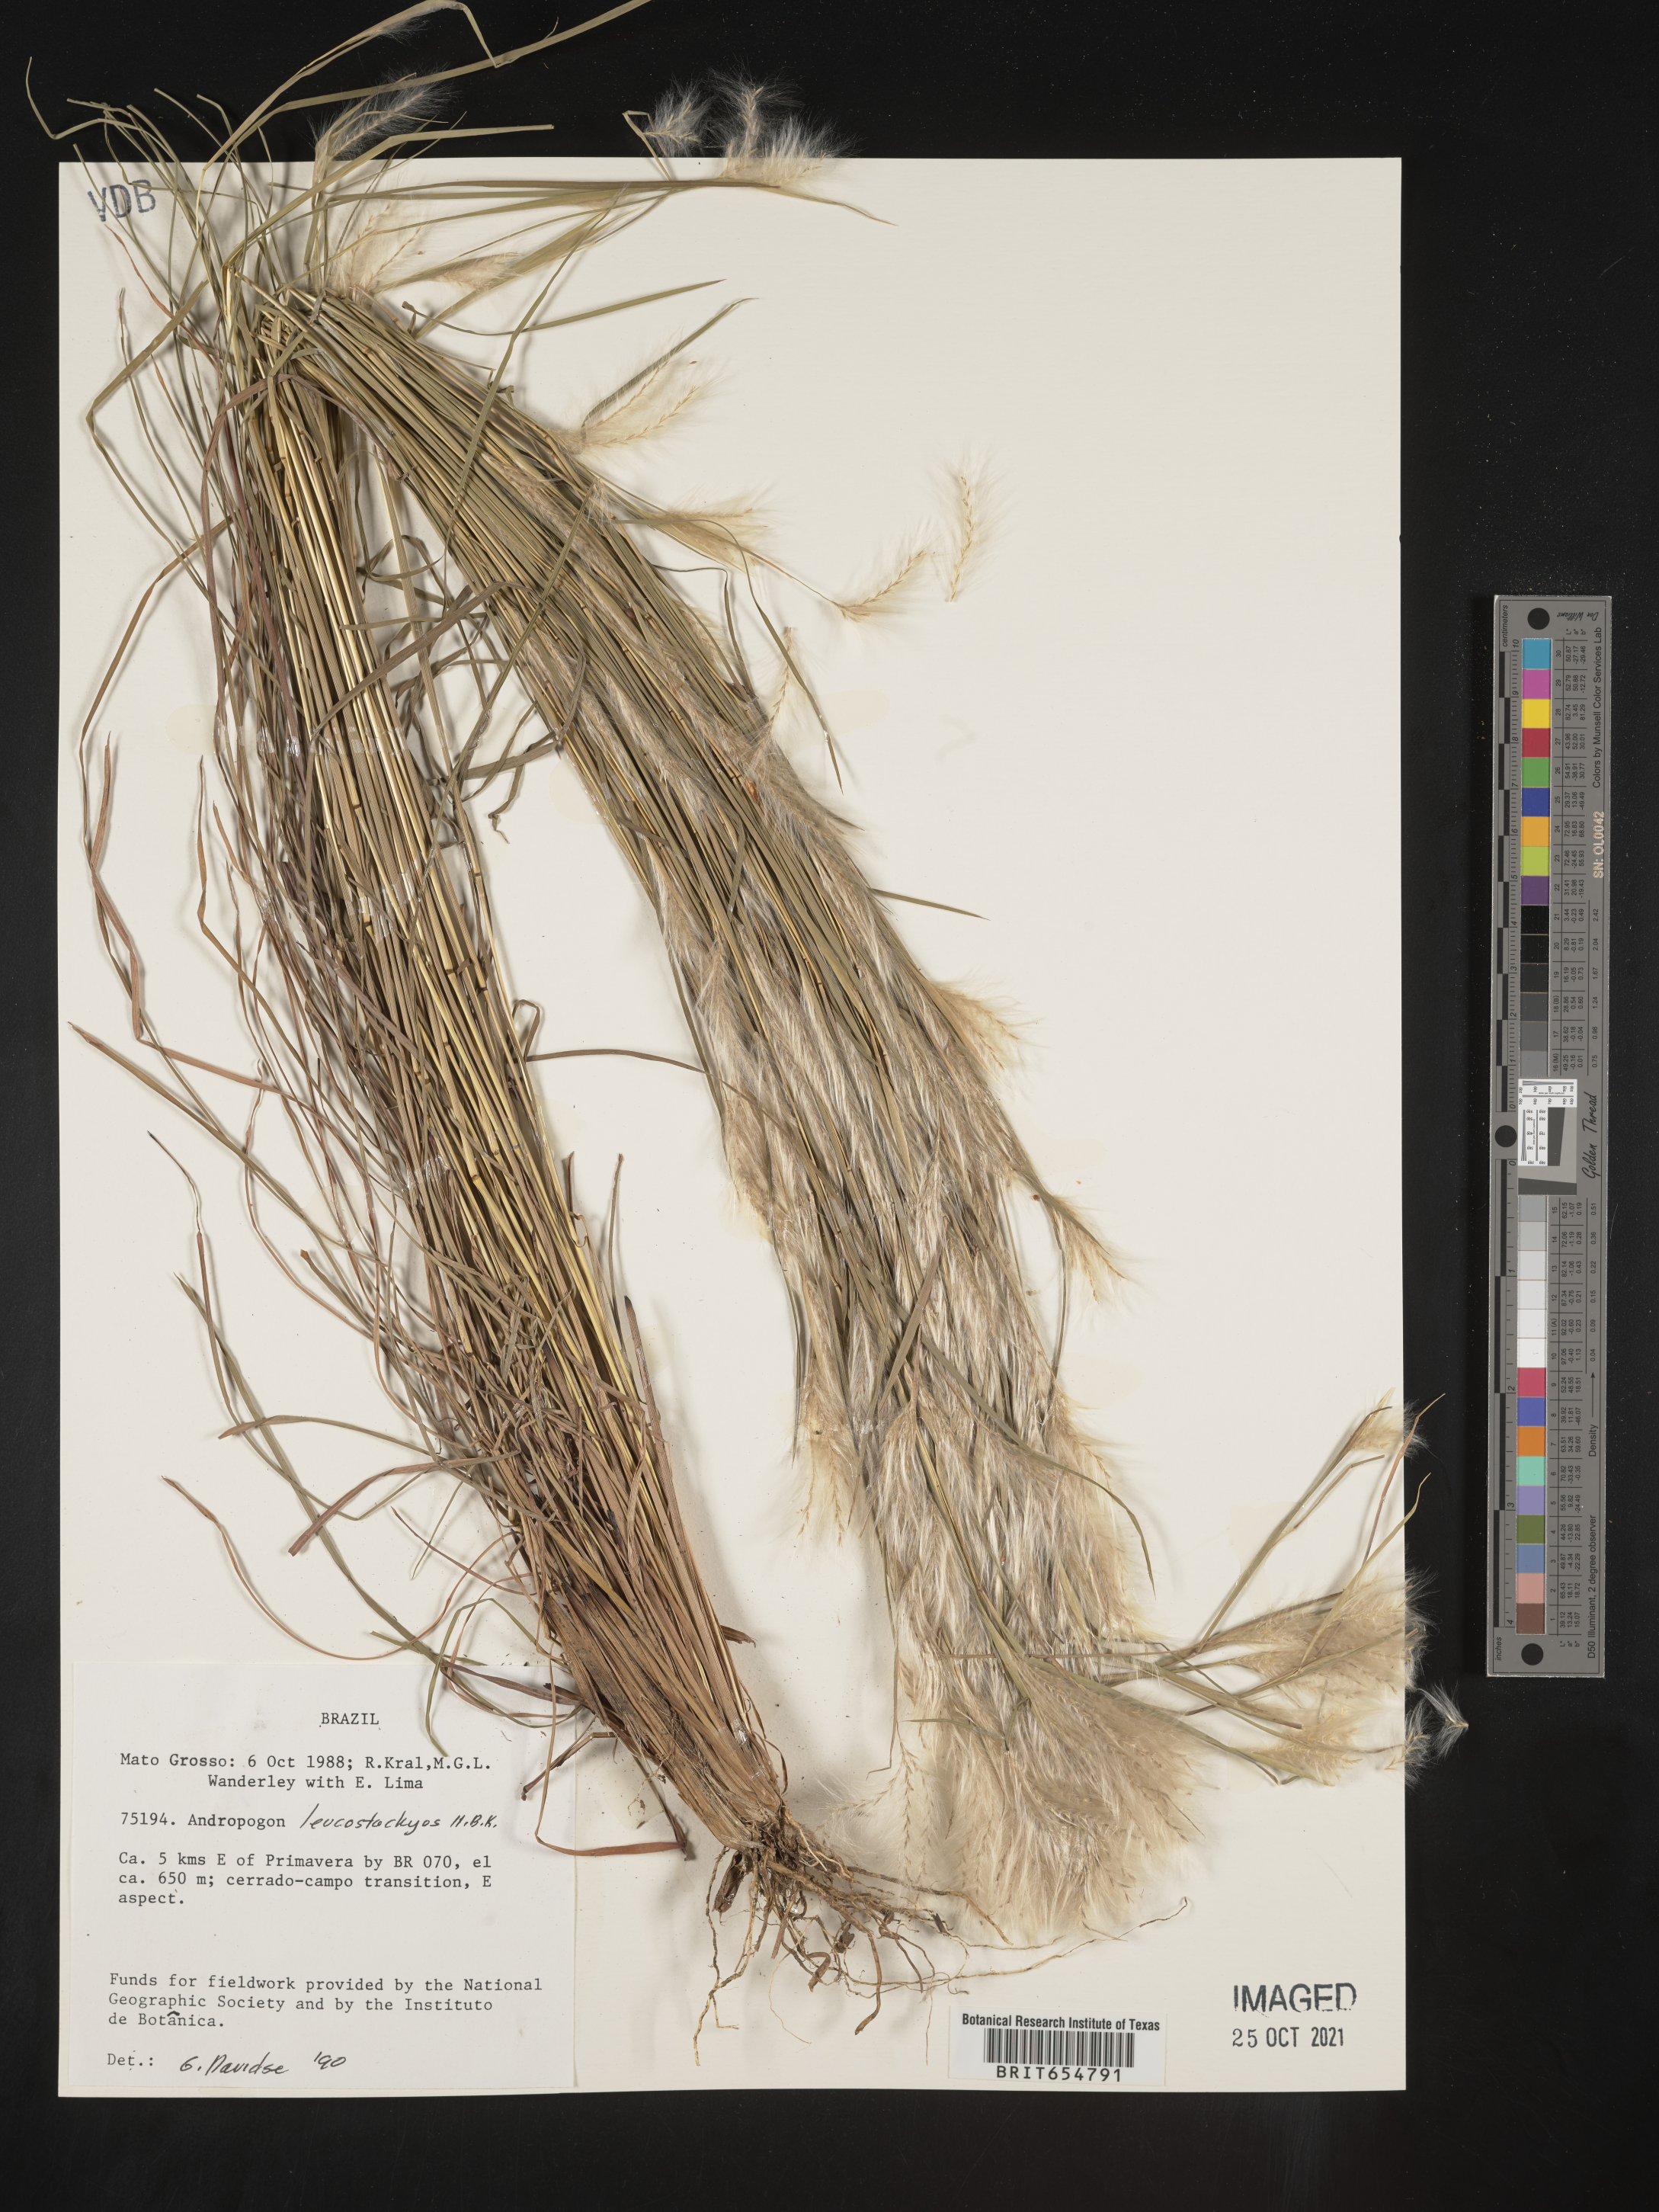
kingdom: Plantae
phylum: Tracheophyta
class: Liliopsida
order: Poales
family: Poaceae
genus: Andropogon
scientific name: Andropogon
